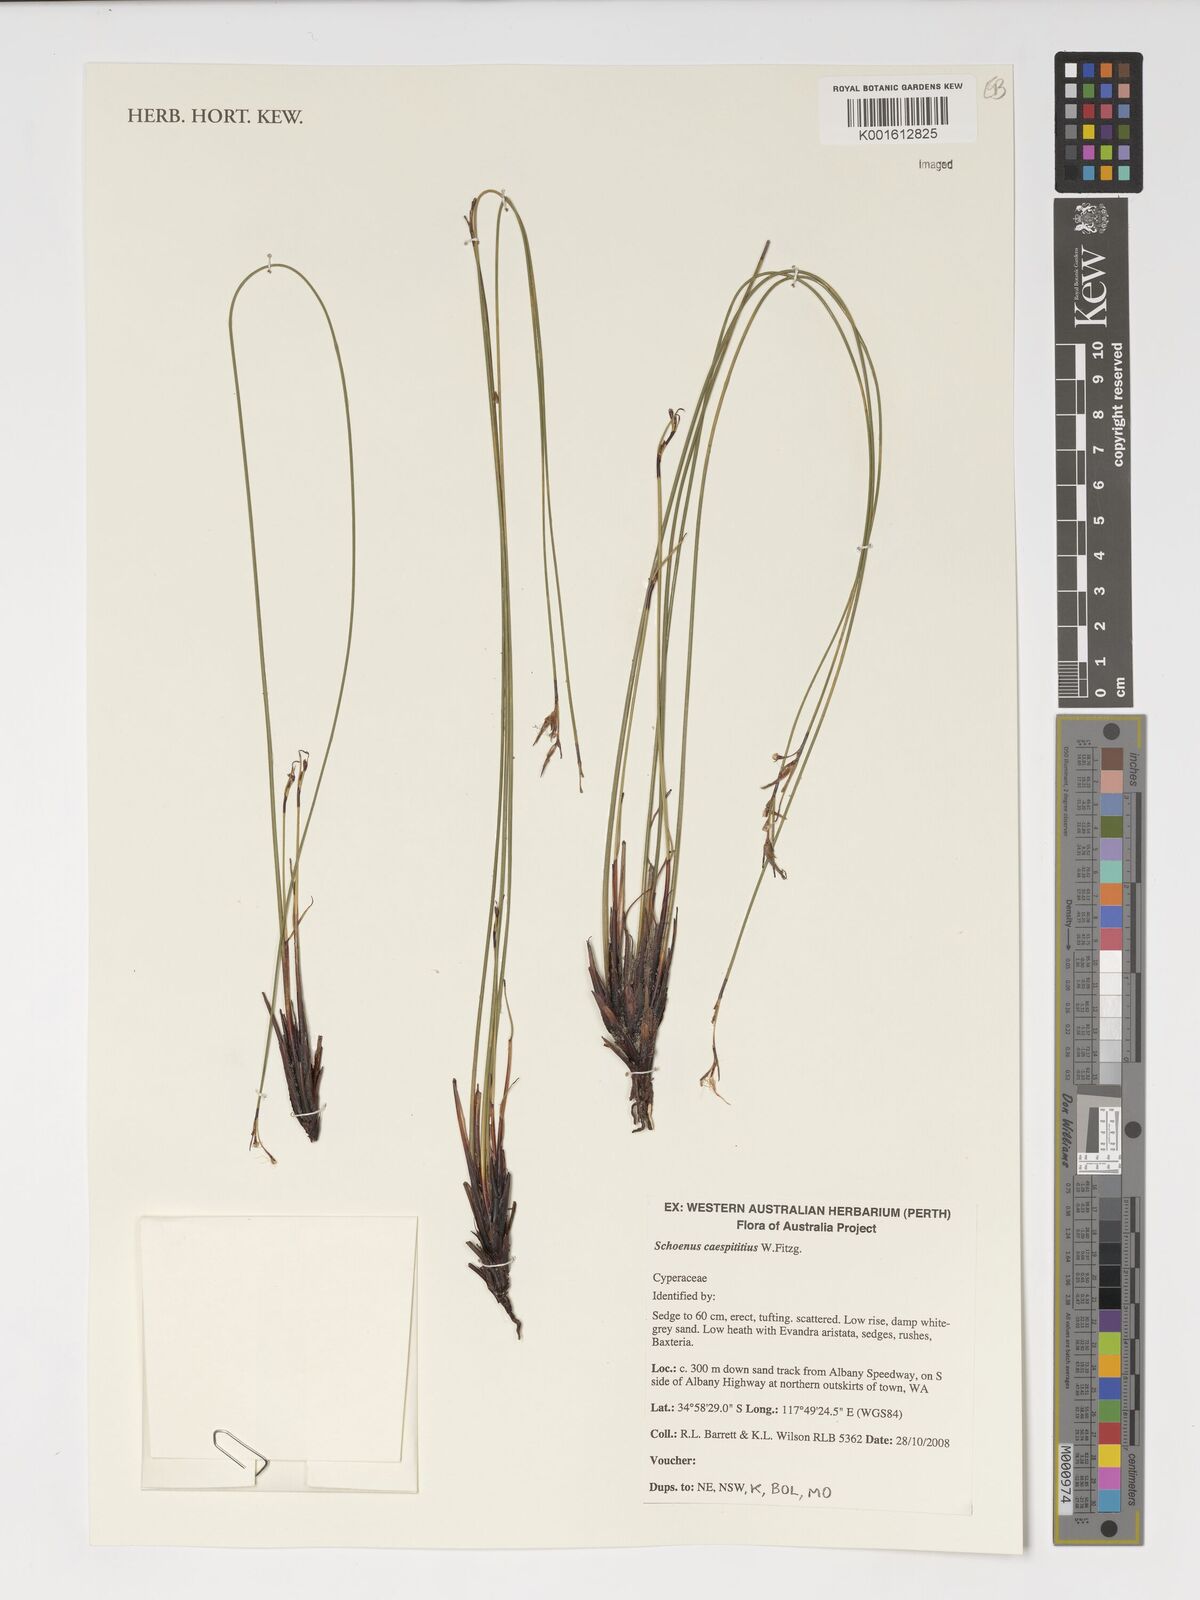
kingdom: Plantae
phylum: Tracheophyta
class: Liliopsida
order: Poales
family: Cyperaceae
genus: Schoenus
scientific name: Schoenus caespititius
